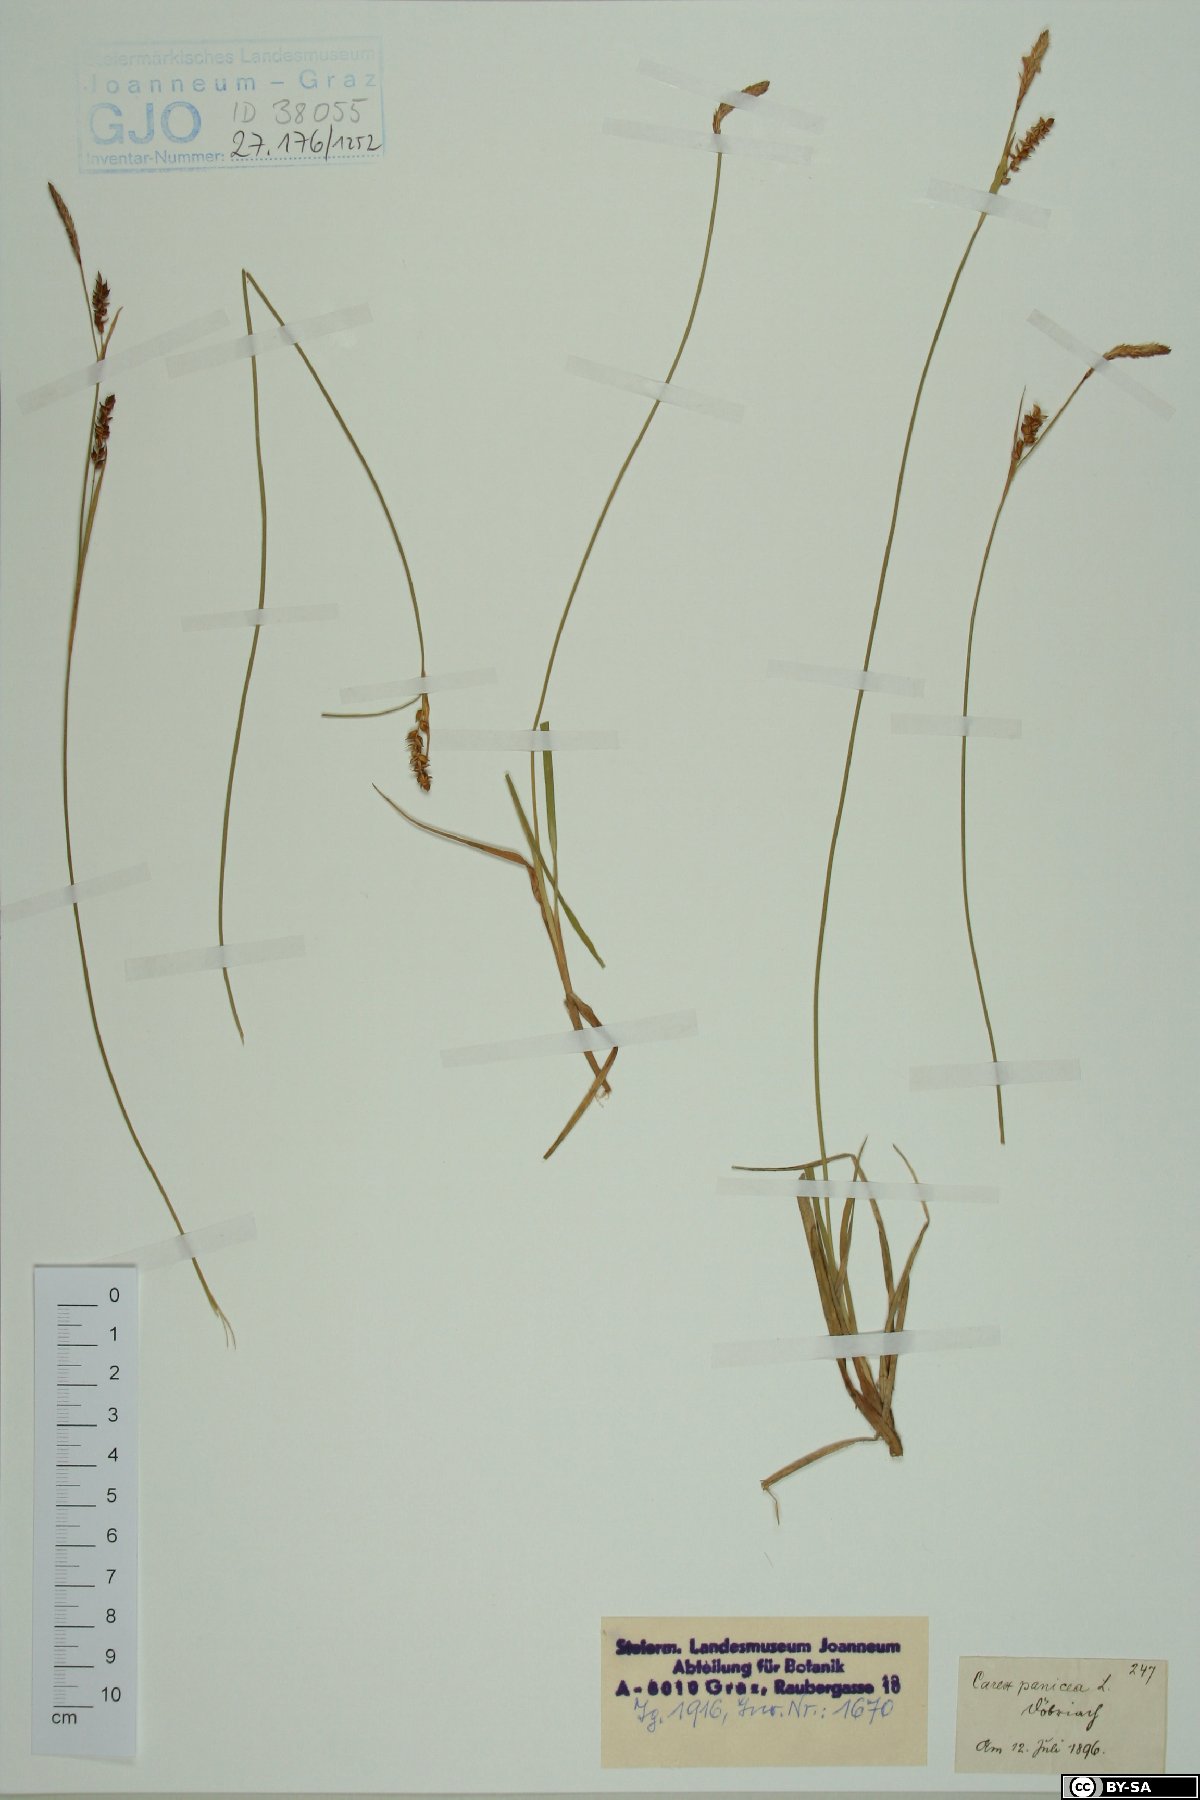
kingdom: Plantae
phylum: Tracheophyta
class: Liliopsida
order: Poales
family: Cyperaceae
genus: Carex
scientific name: Carex panicea
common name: Carnation sedge
